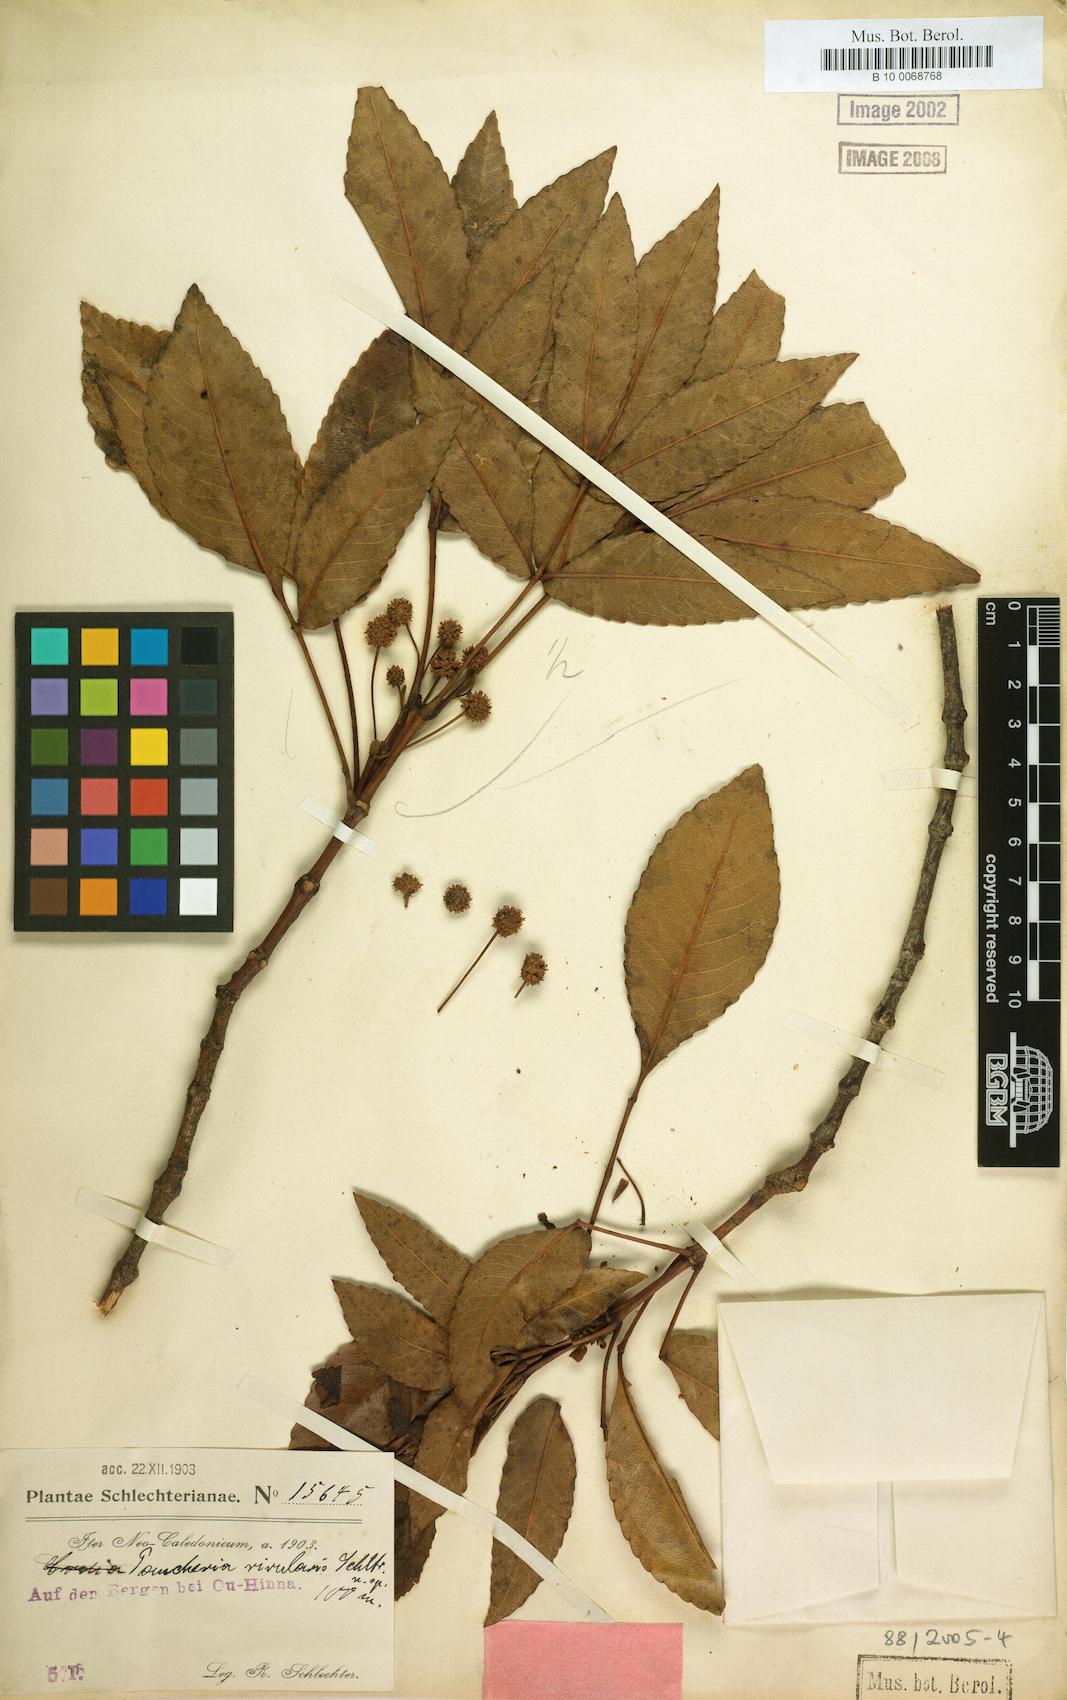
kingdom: Plantae
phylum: Tracheophyta
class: Magnoliopsida
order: Oxalidales
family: Cunoniaceae
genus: Pancheria
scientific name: Pancheria beauverdiana
